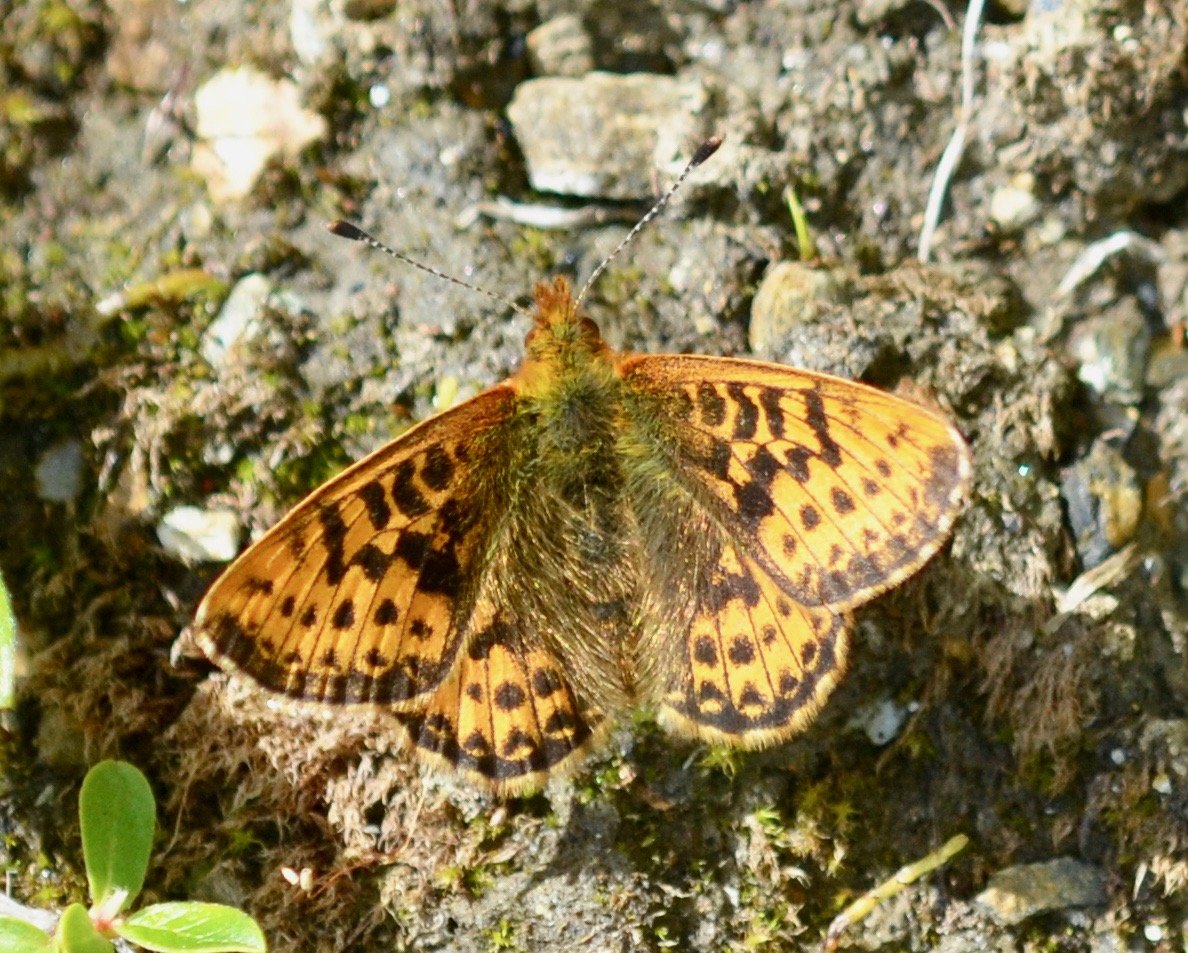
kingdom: Animalia
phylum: Arthropoda
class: Insecta
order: Lepidoptera
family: Nymphalidae
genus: Boloria
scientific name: Boloria chariclea
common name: Arctic Fritillary
